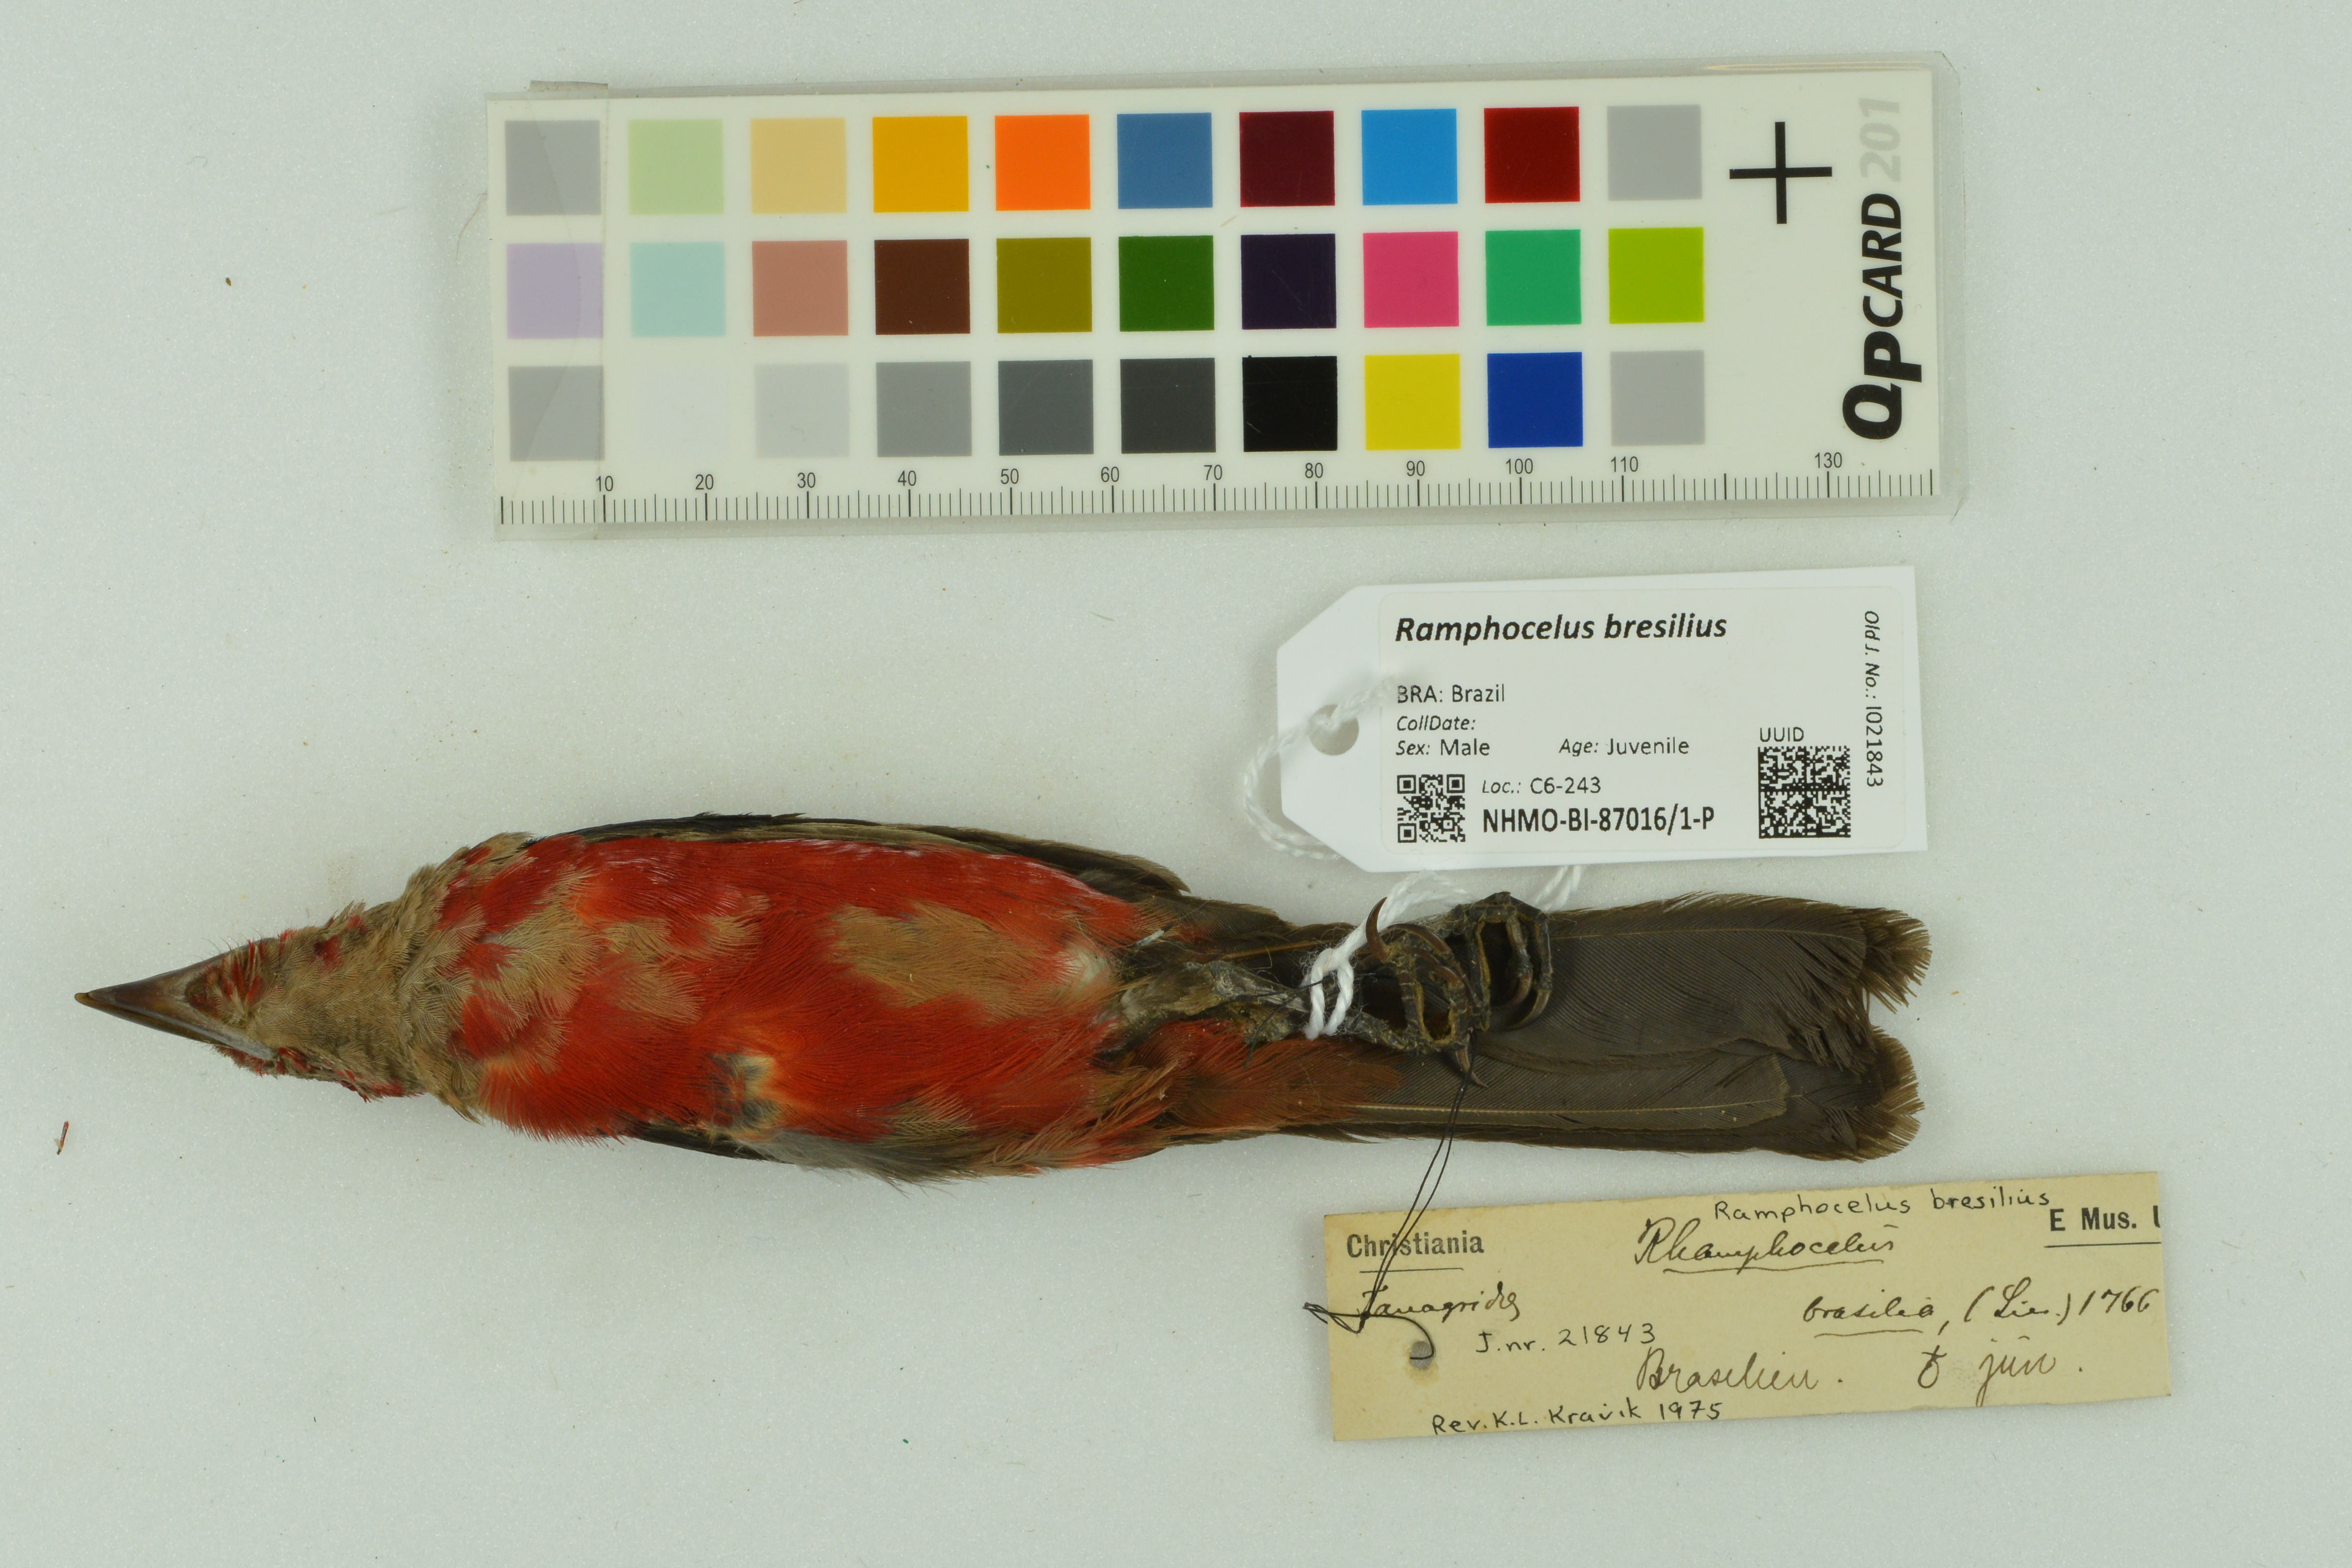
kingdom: Animalia
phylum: Chordata
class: Aves
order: Passeriformes
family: Thraupidae
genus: Ramphocelus
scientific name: Ramphocelus bresilia
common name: Brazilian tanager
